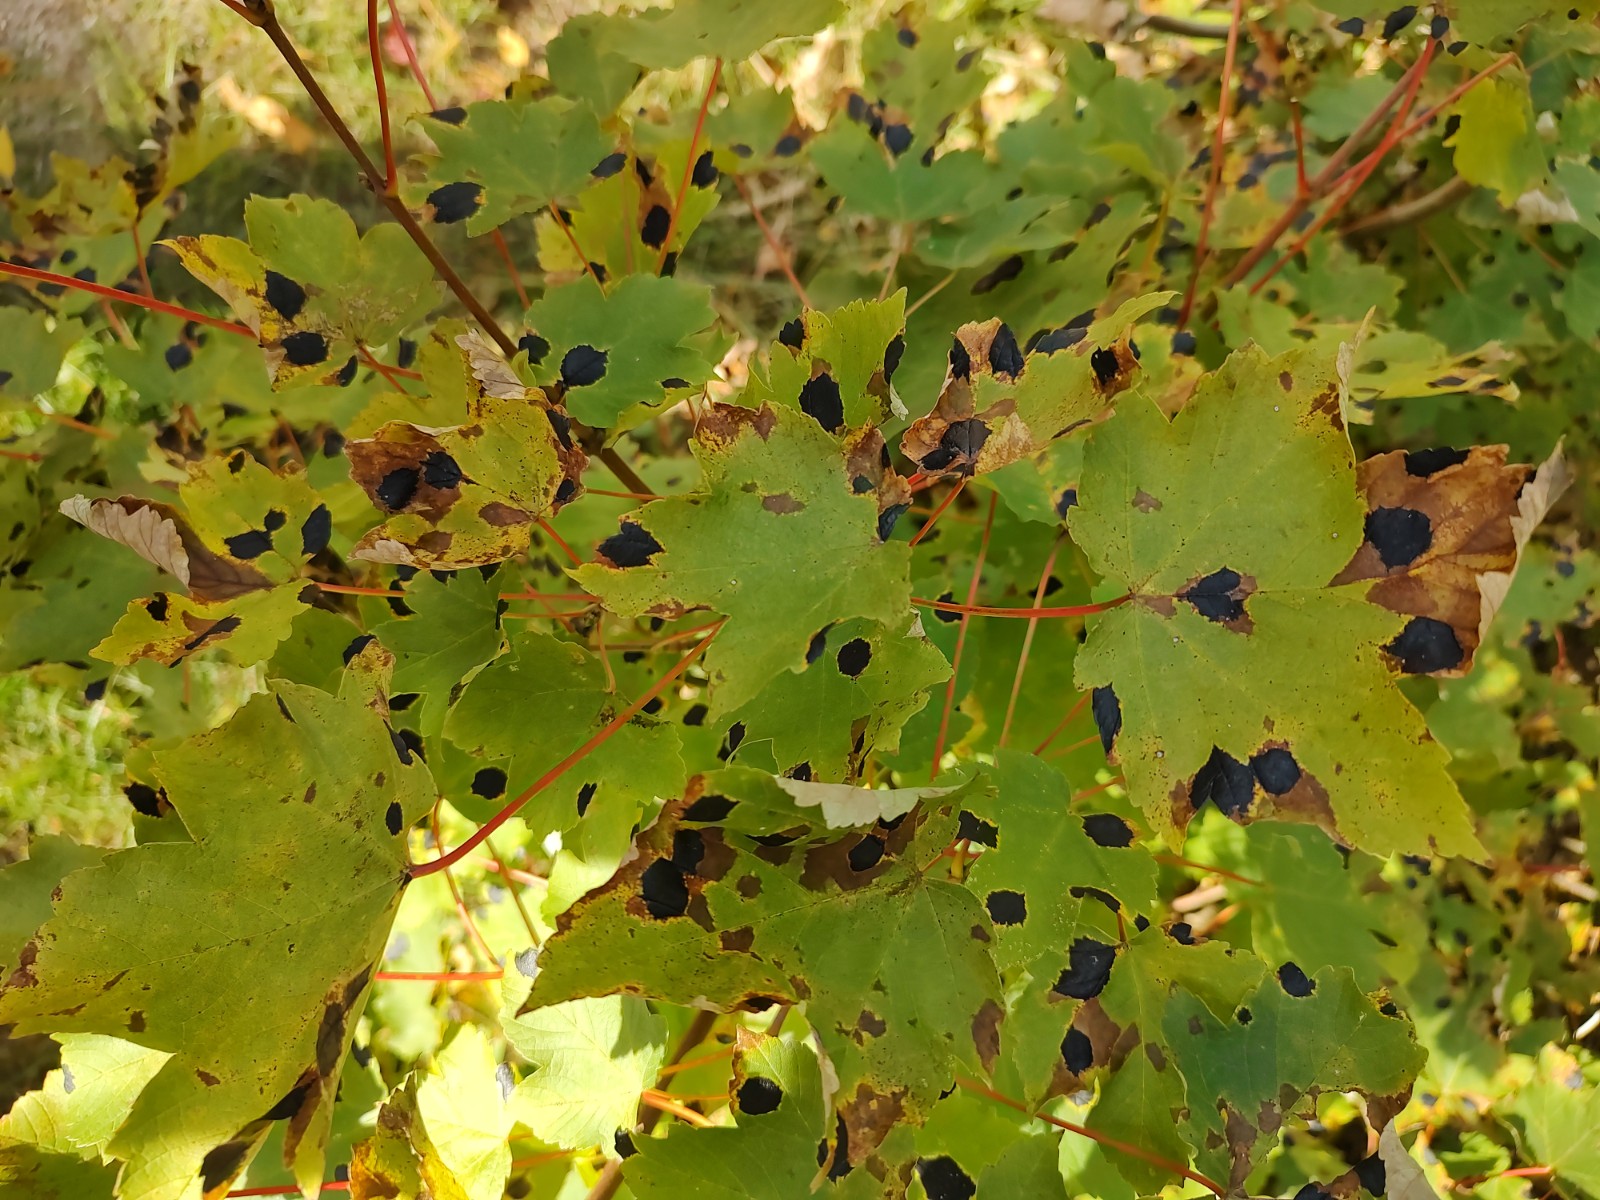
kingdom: Fungi
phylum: Ascomycota
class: Leotiomycetes
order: Rhytismatales
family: Rhytismataceae
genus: Rhytisma
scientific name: Rhytisma acerinum
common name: ahorn-rynkeplet
